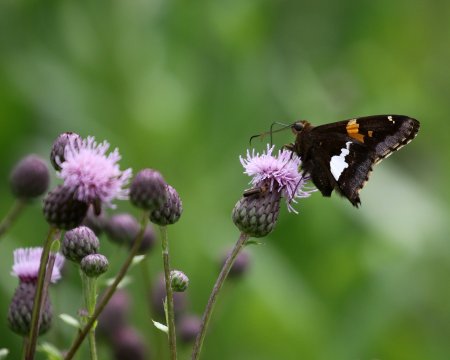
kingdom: Animalia
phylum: Arthropoda
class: Insecta
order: Lepidoptera
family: Hesperiidae
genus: Epargyreus
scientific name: Epargyreus clarus
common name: Silver-spotted Skipper
